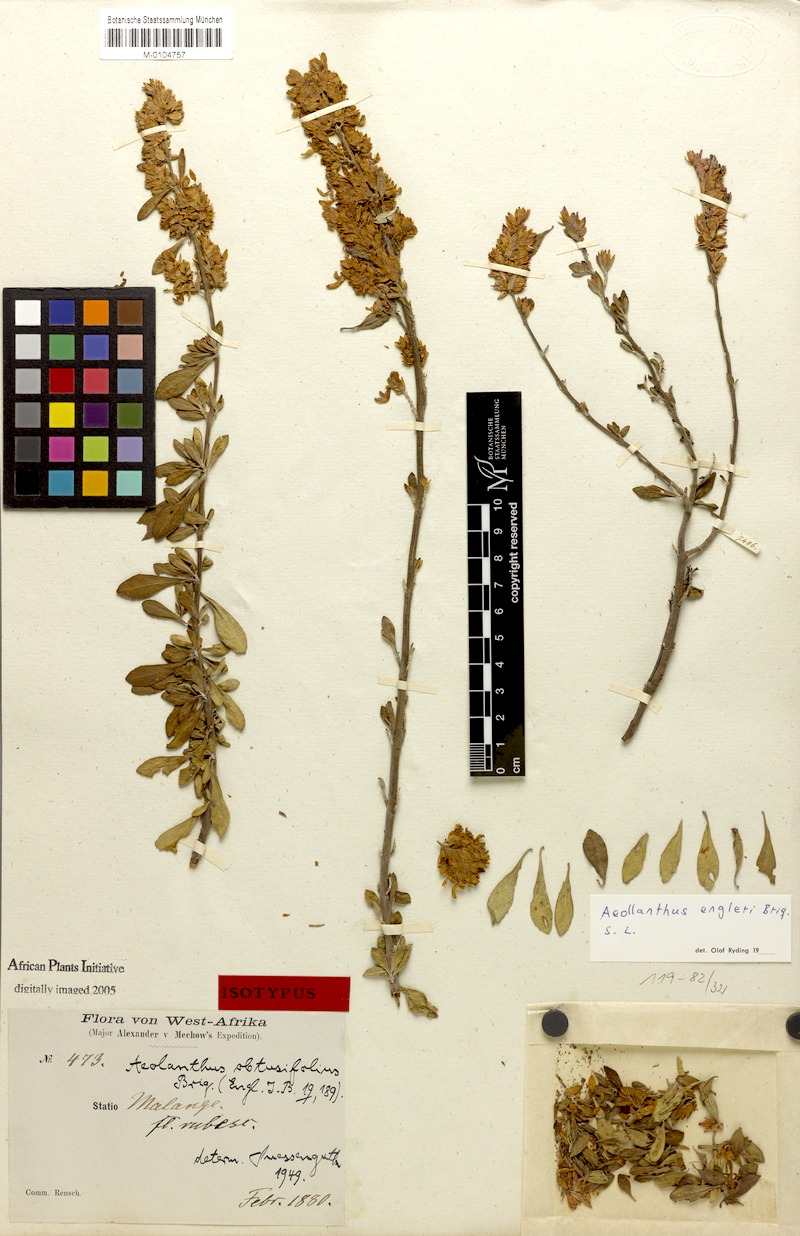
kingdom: Plantae
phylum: Tracheophyta
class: Magnoliopsida
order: Lamiales
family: Lamiaceae
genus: Aeollanthus
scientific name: Aeollanthus engleri
